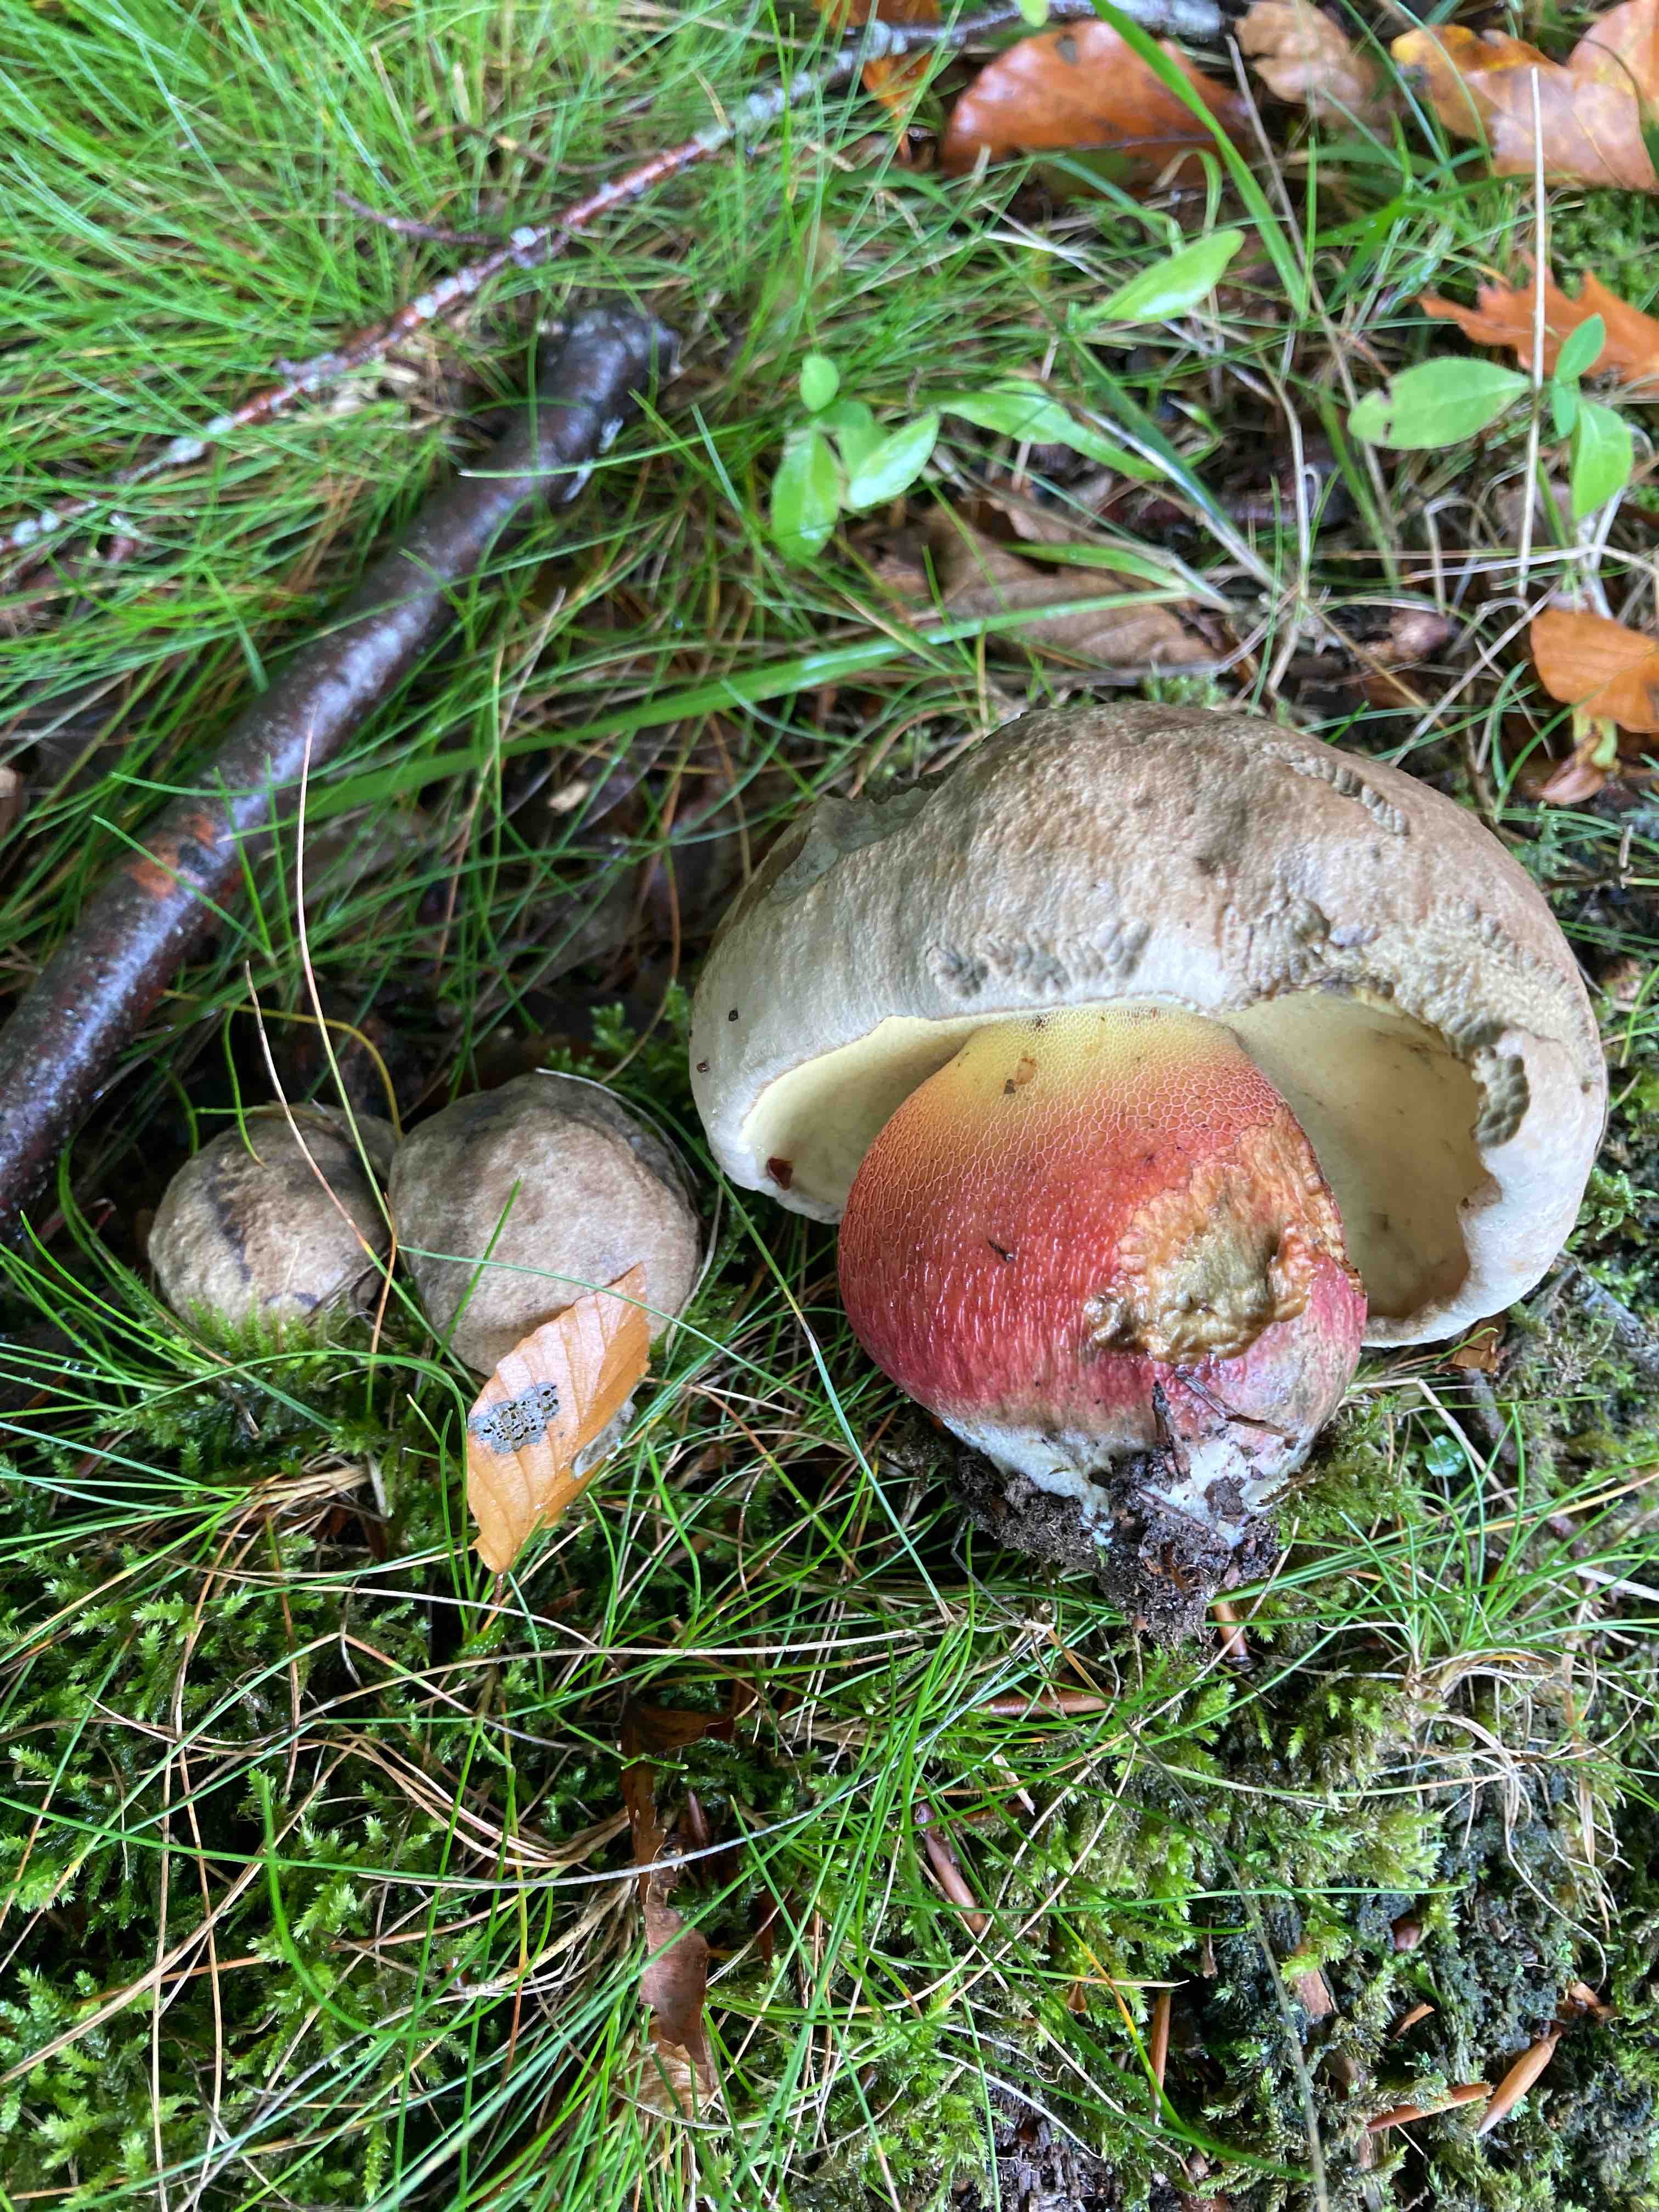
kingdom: Fungi
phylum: Basidiomycota
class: Agaricomycetes
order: Boletales
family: Boletaceae
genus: Caloboletus
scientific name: Caloboletus calopus
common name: skønfodet rørhat
